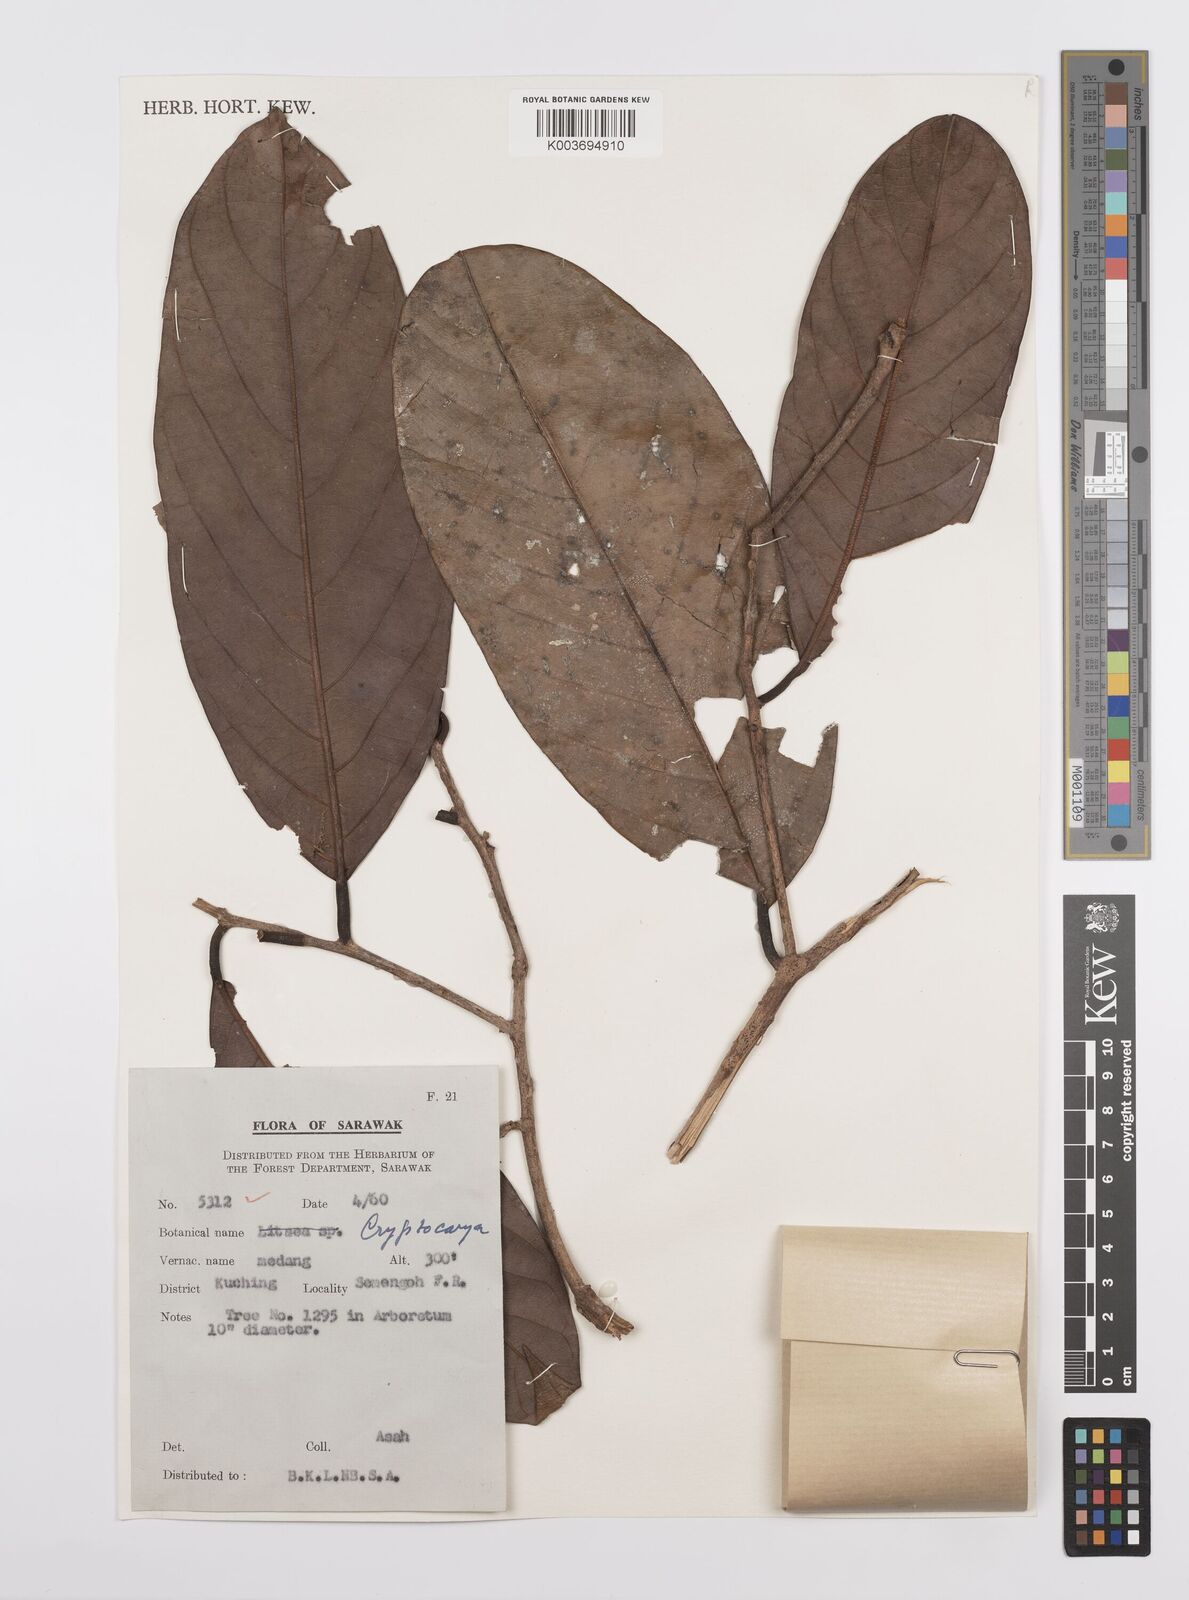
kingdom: Plantae
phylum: Tracheophyta
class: Magnoliopsida
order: Laurales
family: Lauraceae
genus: Cryptocarya
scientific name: Cryptocarya
